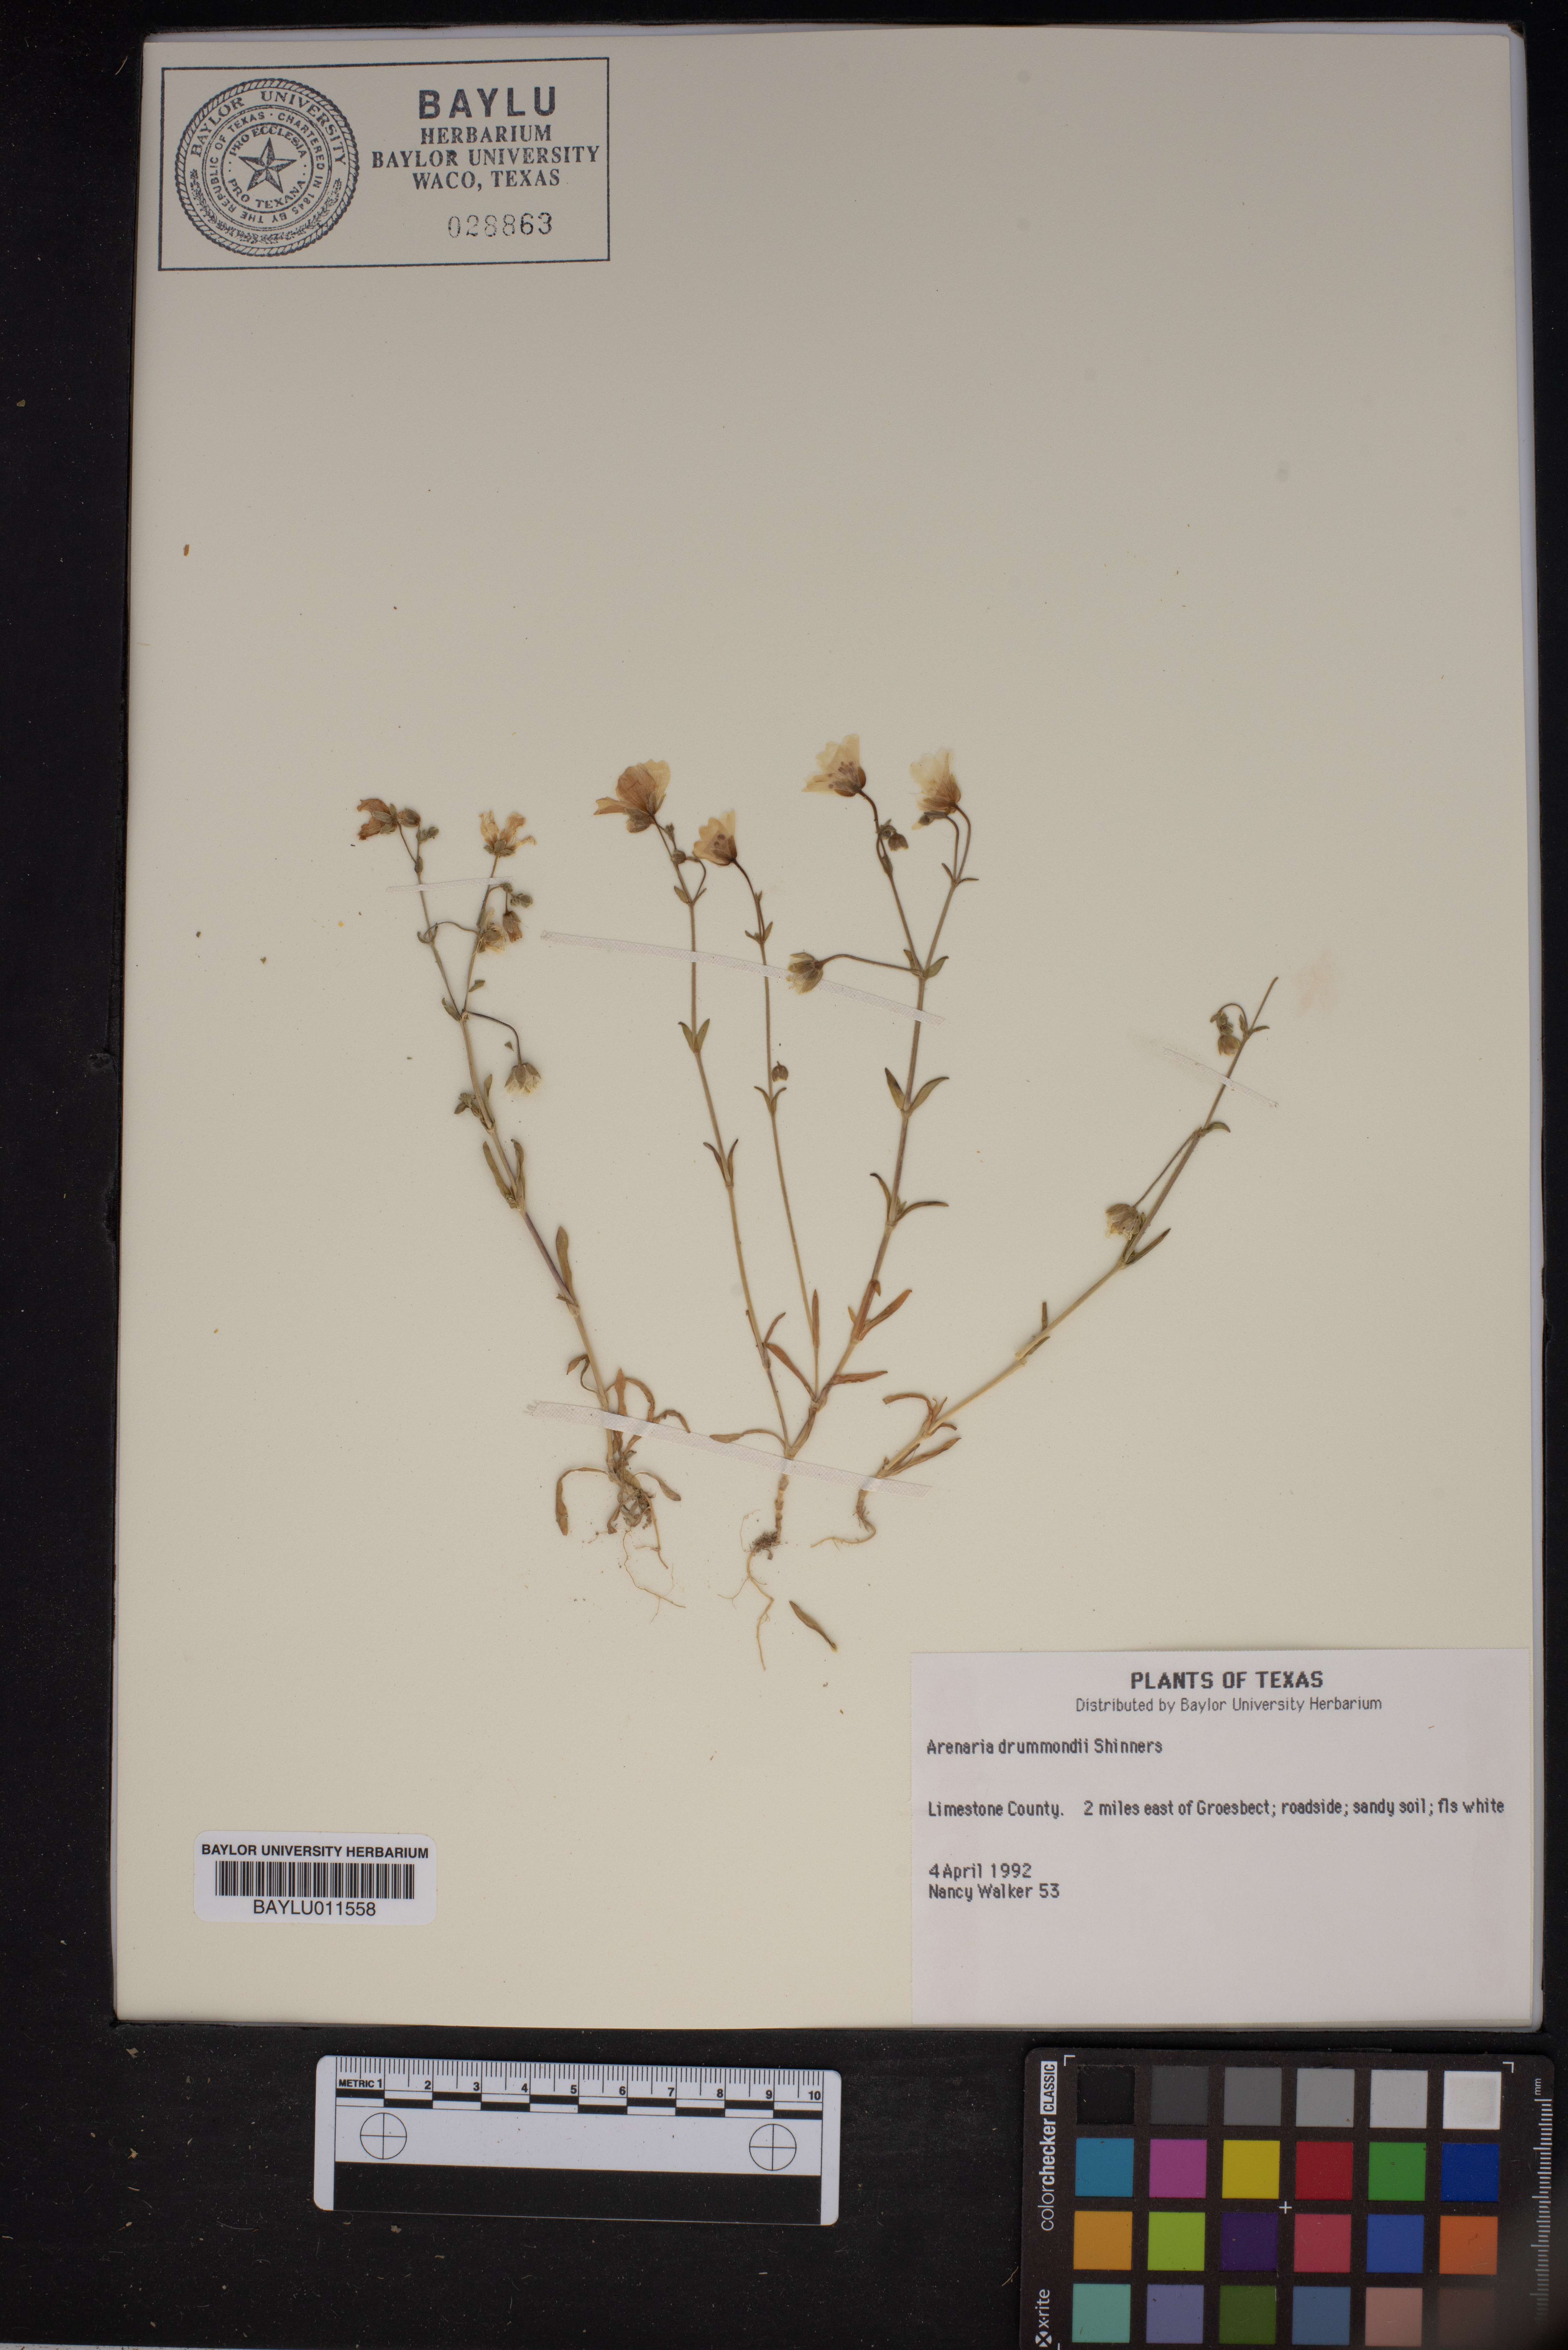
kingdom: Plantae
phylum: Tracheophyta
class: Magnoliopsida
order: Caryophyllales
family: Caryophyllaceae
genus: Geocarpon
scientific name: Geocarpon nuttallii
